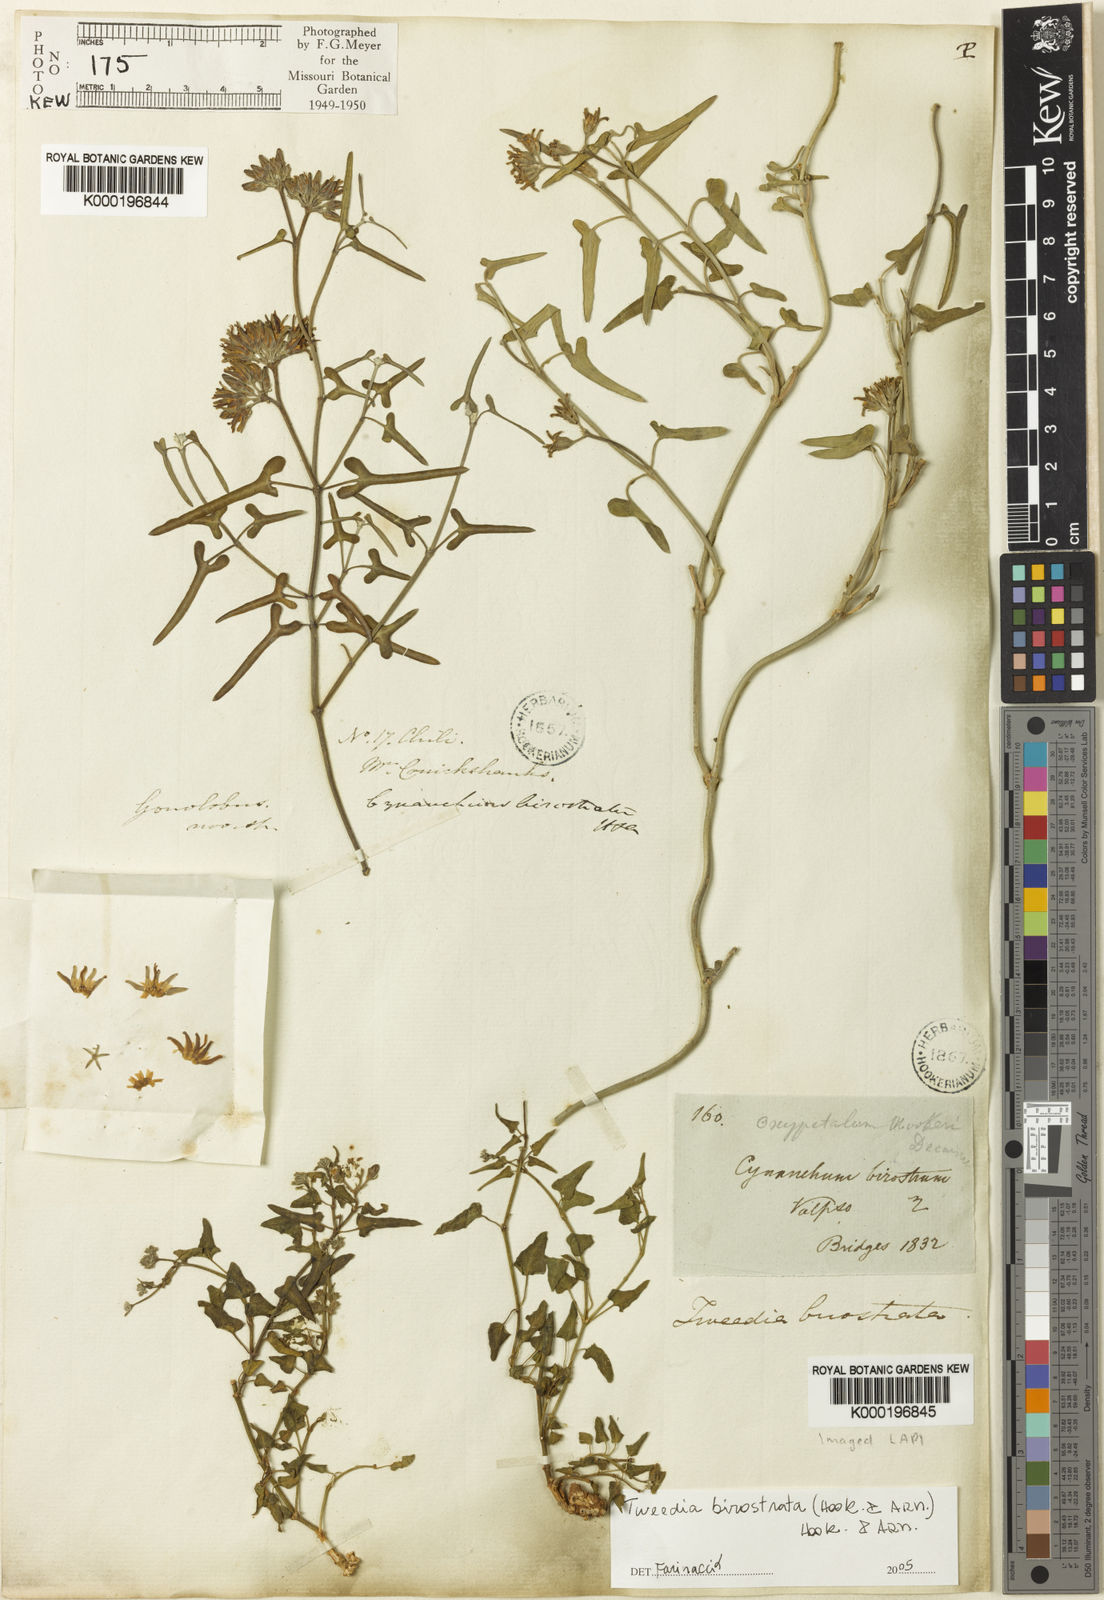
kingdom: Plantae
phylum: Tracheophyta
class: Magnoliopsida
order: Gentianales
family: Apocynaceae
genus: Tweedia
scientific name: Tweedia birostrata
